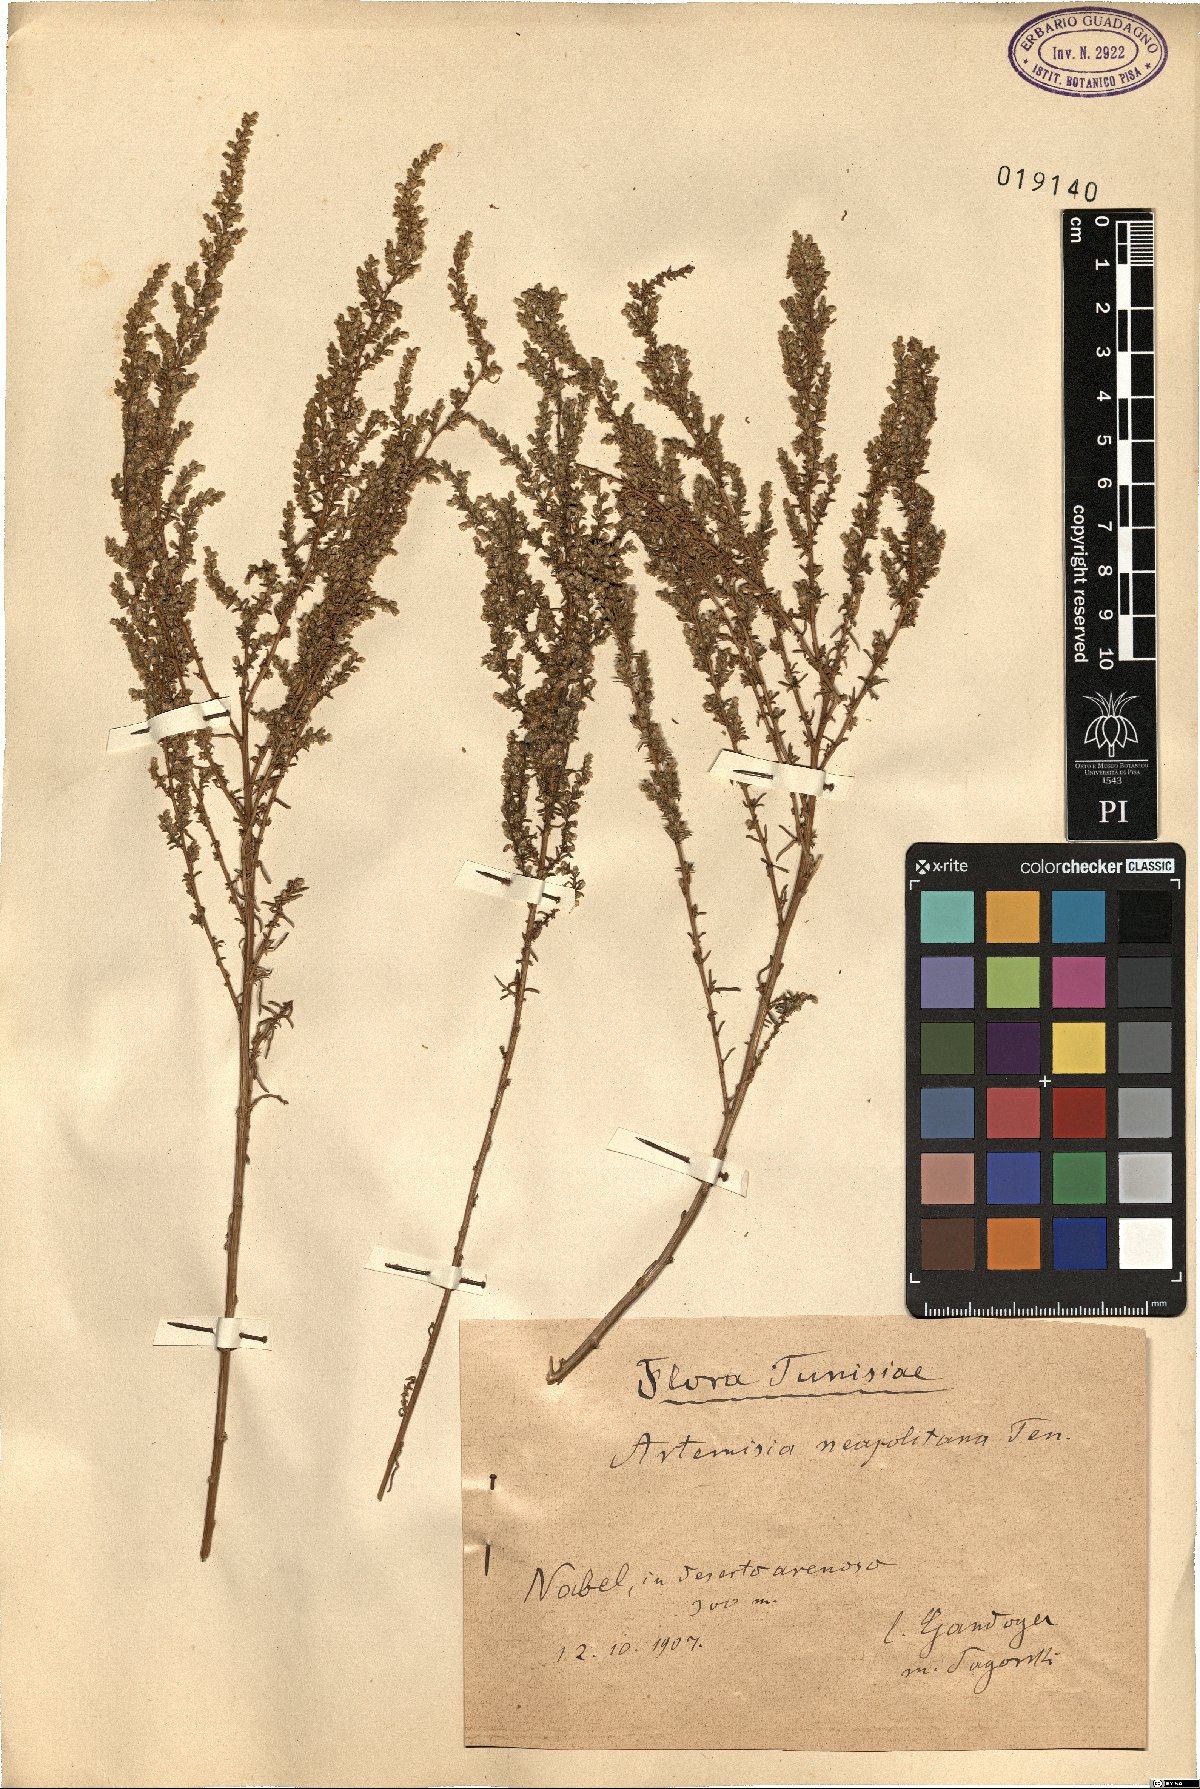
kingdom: Plantae
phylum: Tracheophyta
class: Magnoliopsida
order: Asterales
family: Asteraceae
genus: Artemisia
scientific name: Artemisia campestris
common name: Field wormwood
